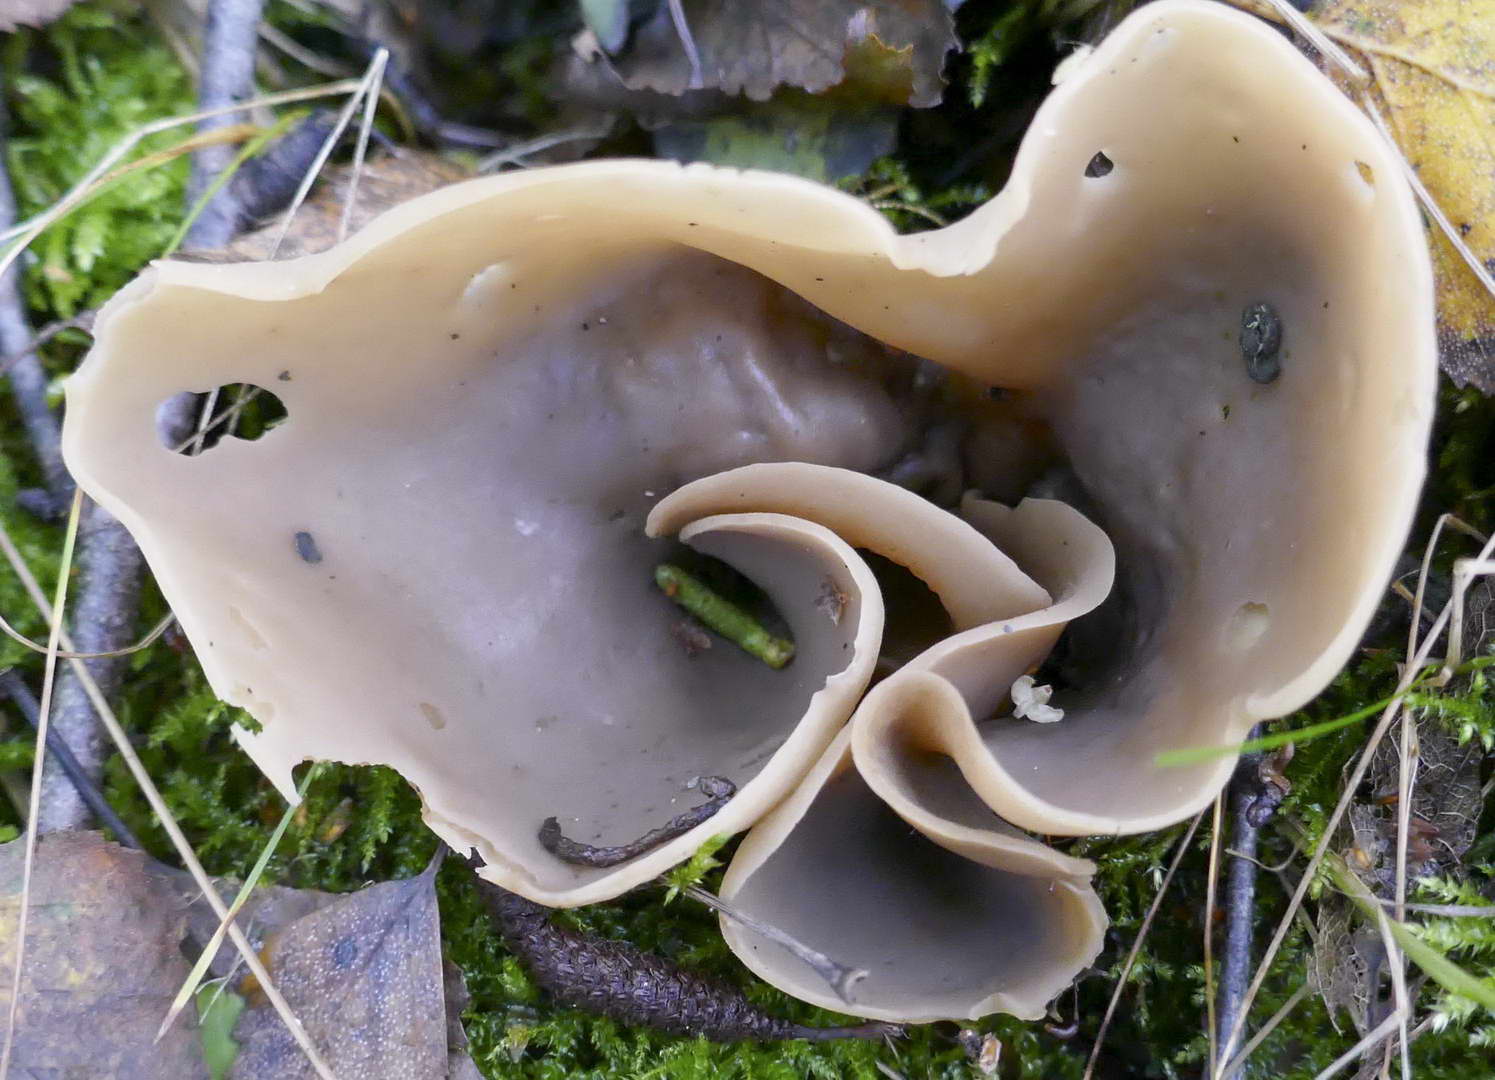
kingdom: Fungi
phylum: Ascomycota
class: Pezizomycetes
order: Pezizales
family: Otideaceae
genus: Otidea
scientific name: Otidea alutacea
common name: læder-ørebæger
